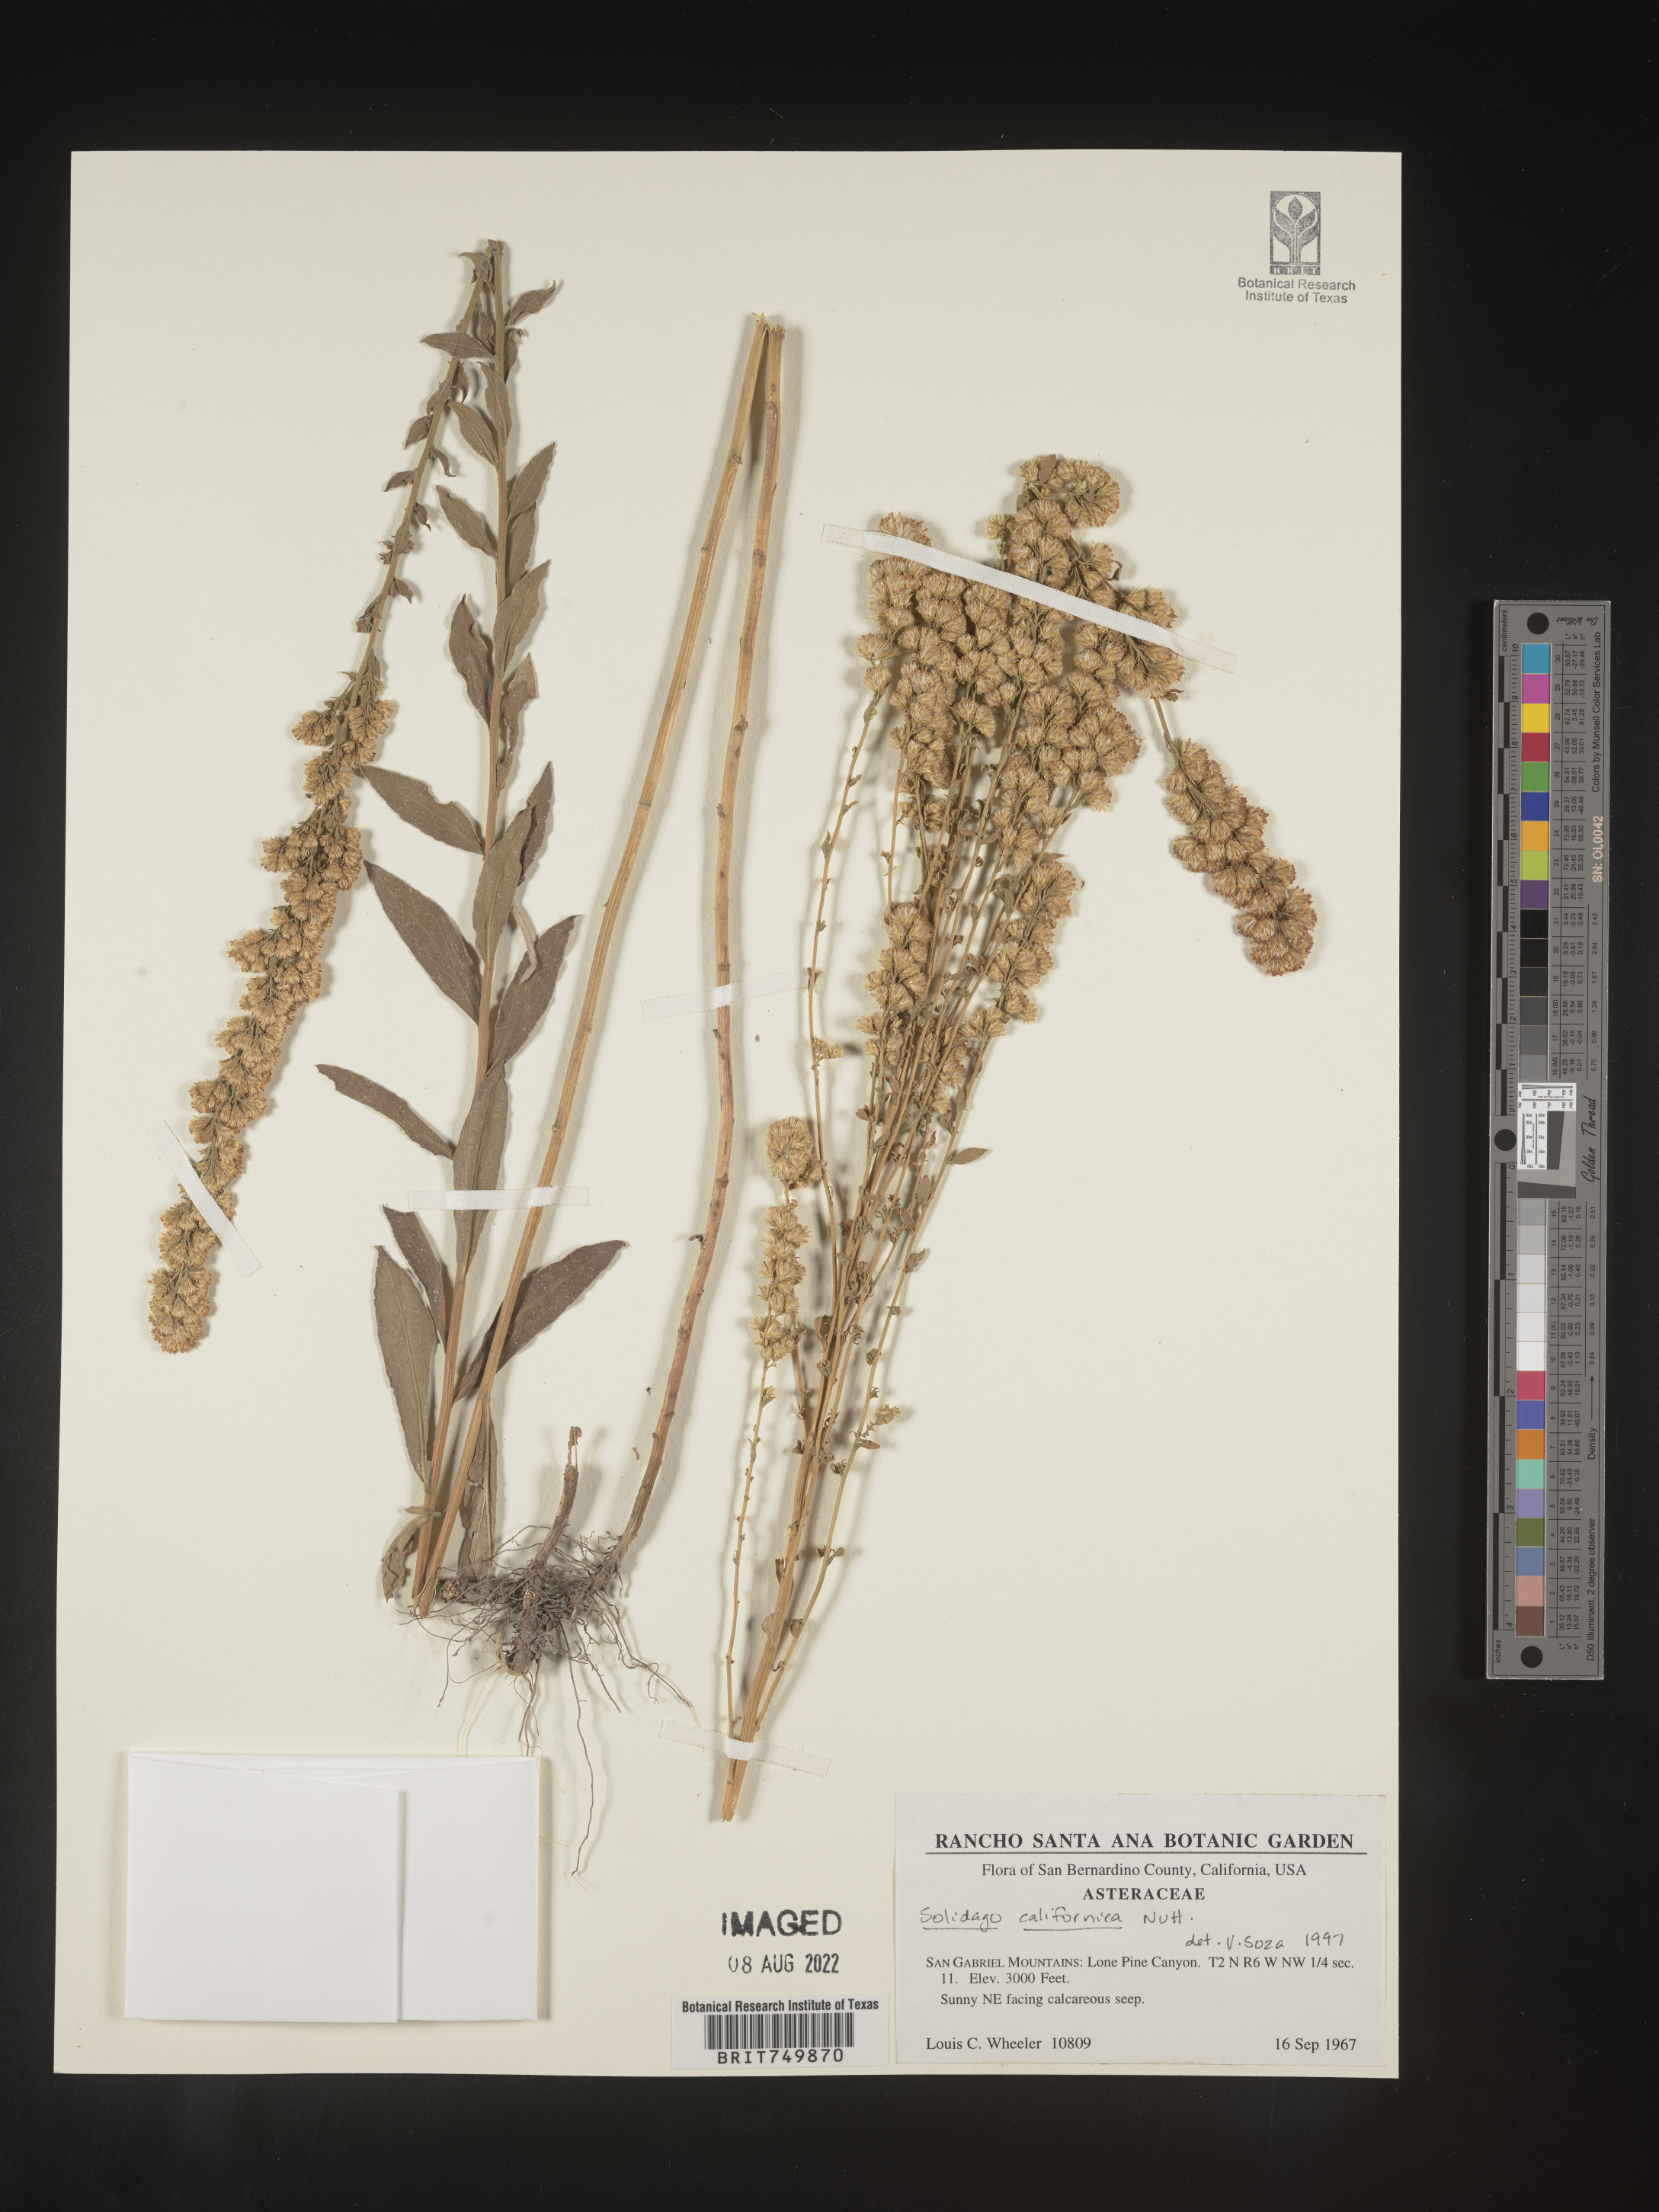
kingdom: Plantae
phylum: Tracheophyta
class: Magnoliopsida
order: Asterales
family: Asteraceae
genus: Solidago
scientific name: Solidago californica
